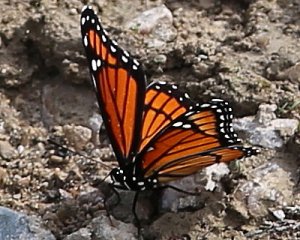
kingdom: Animalia
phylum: Arthropoda
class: Insecta
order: Lepidoptera
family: Nymphalidae
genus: Limenitis
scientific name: Limenitis archippus
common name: Viceroy
